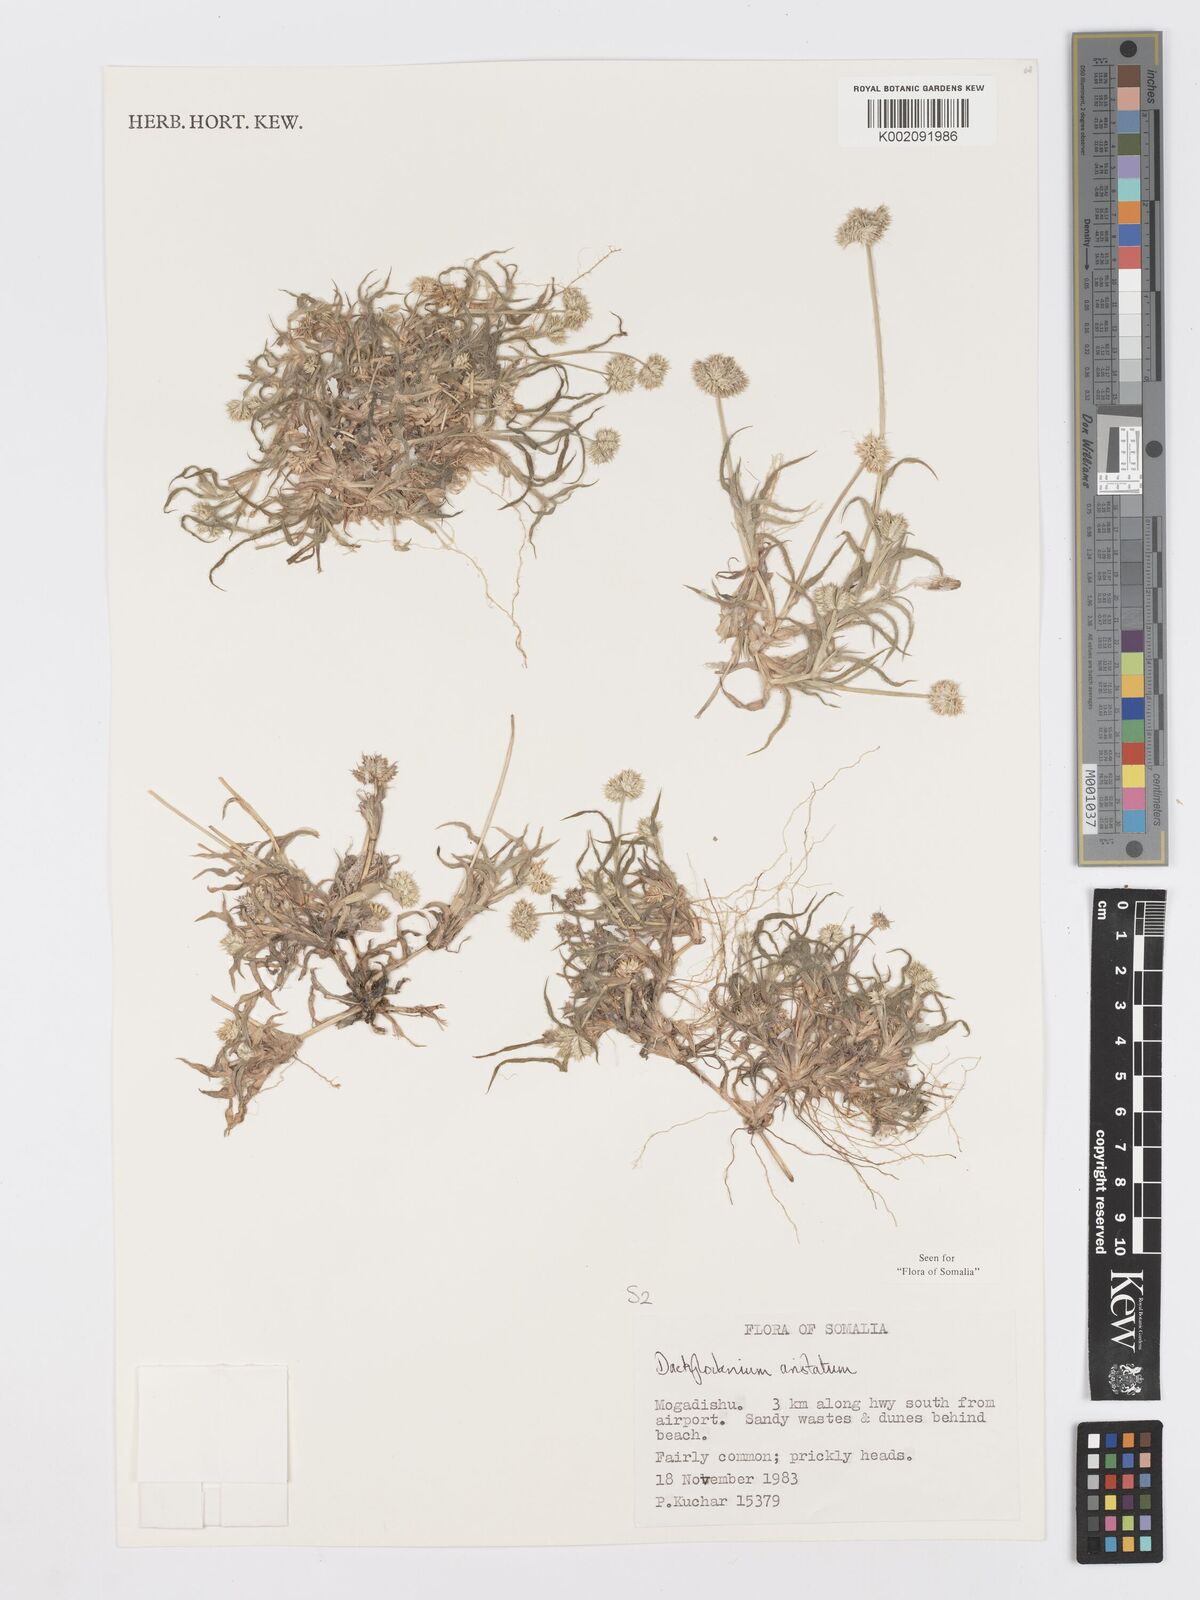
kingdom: Plantae
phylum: Tracheophyta
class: Liliopsida
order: Poales
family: Poaceae
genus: Dactyloctenium
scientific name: Dactyloctenium aristatum
